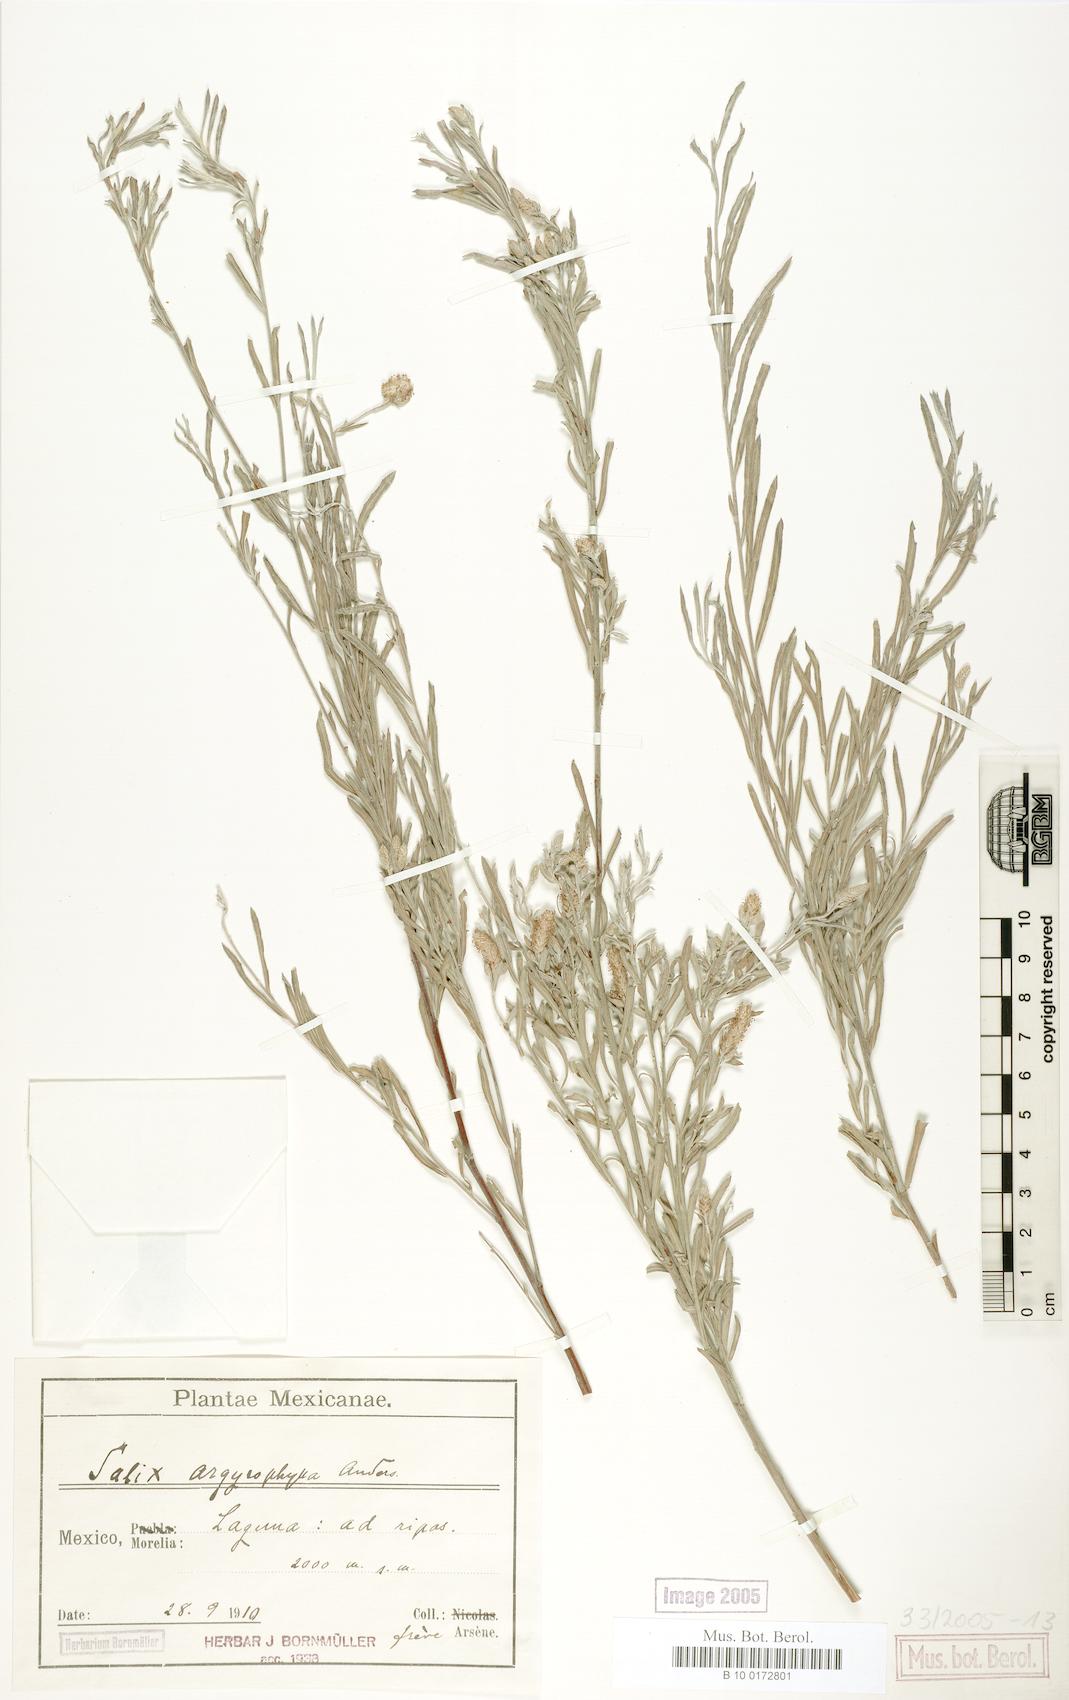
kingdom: Plantae
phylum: Tracheophyta
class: Magnoliopsida
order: Malpighiales
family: Salicaceae
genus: Salix
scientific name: Salix pantosericea
